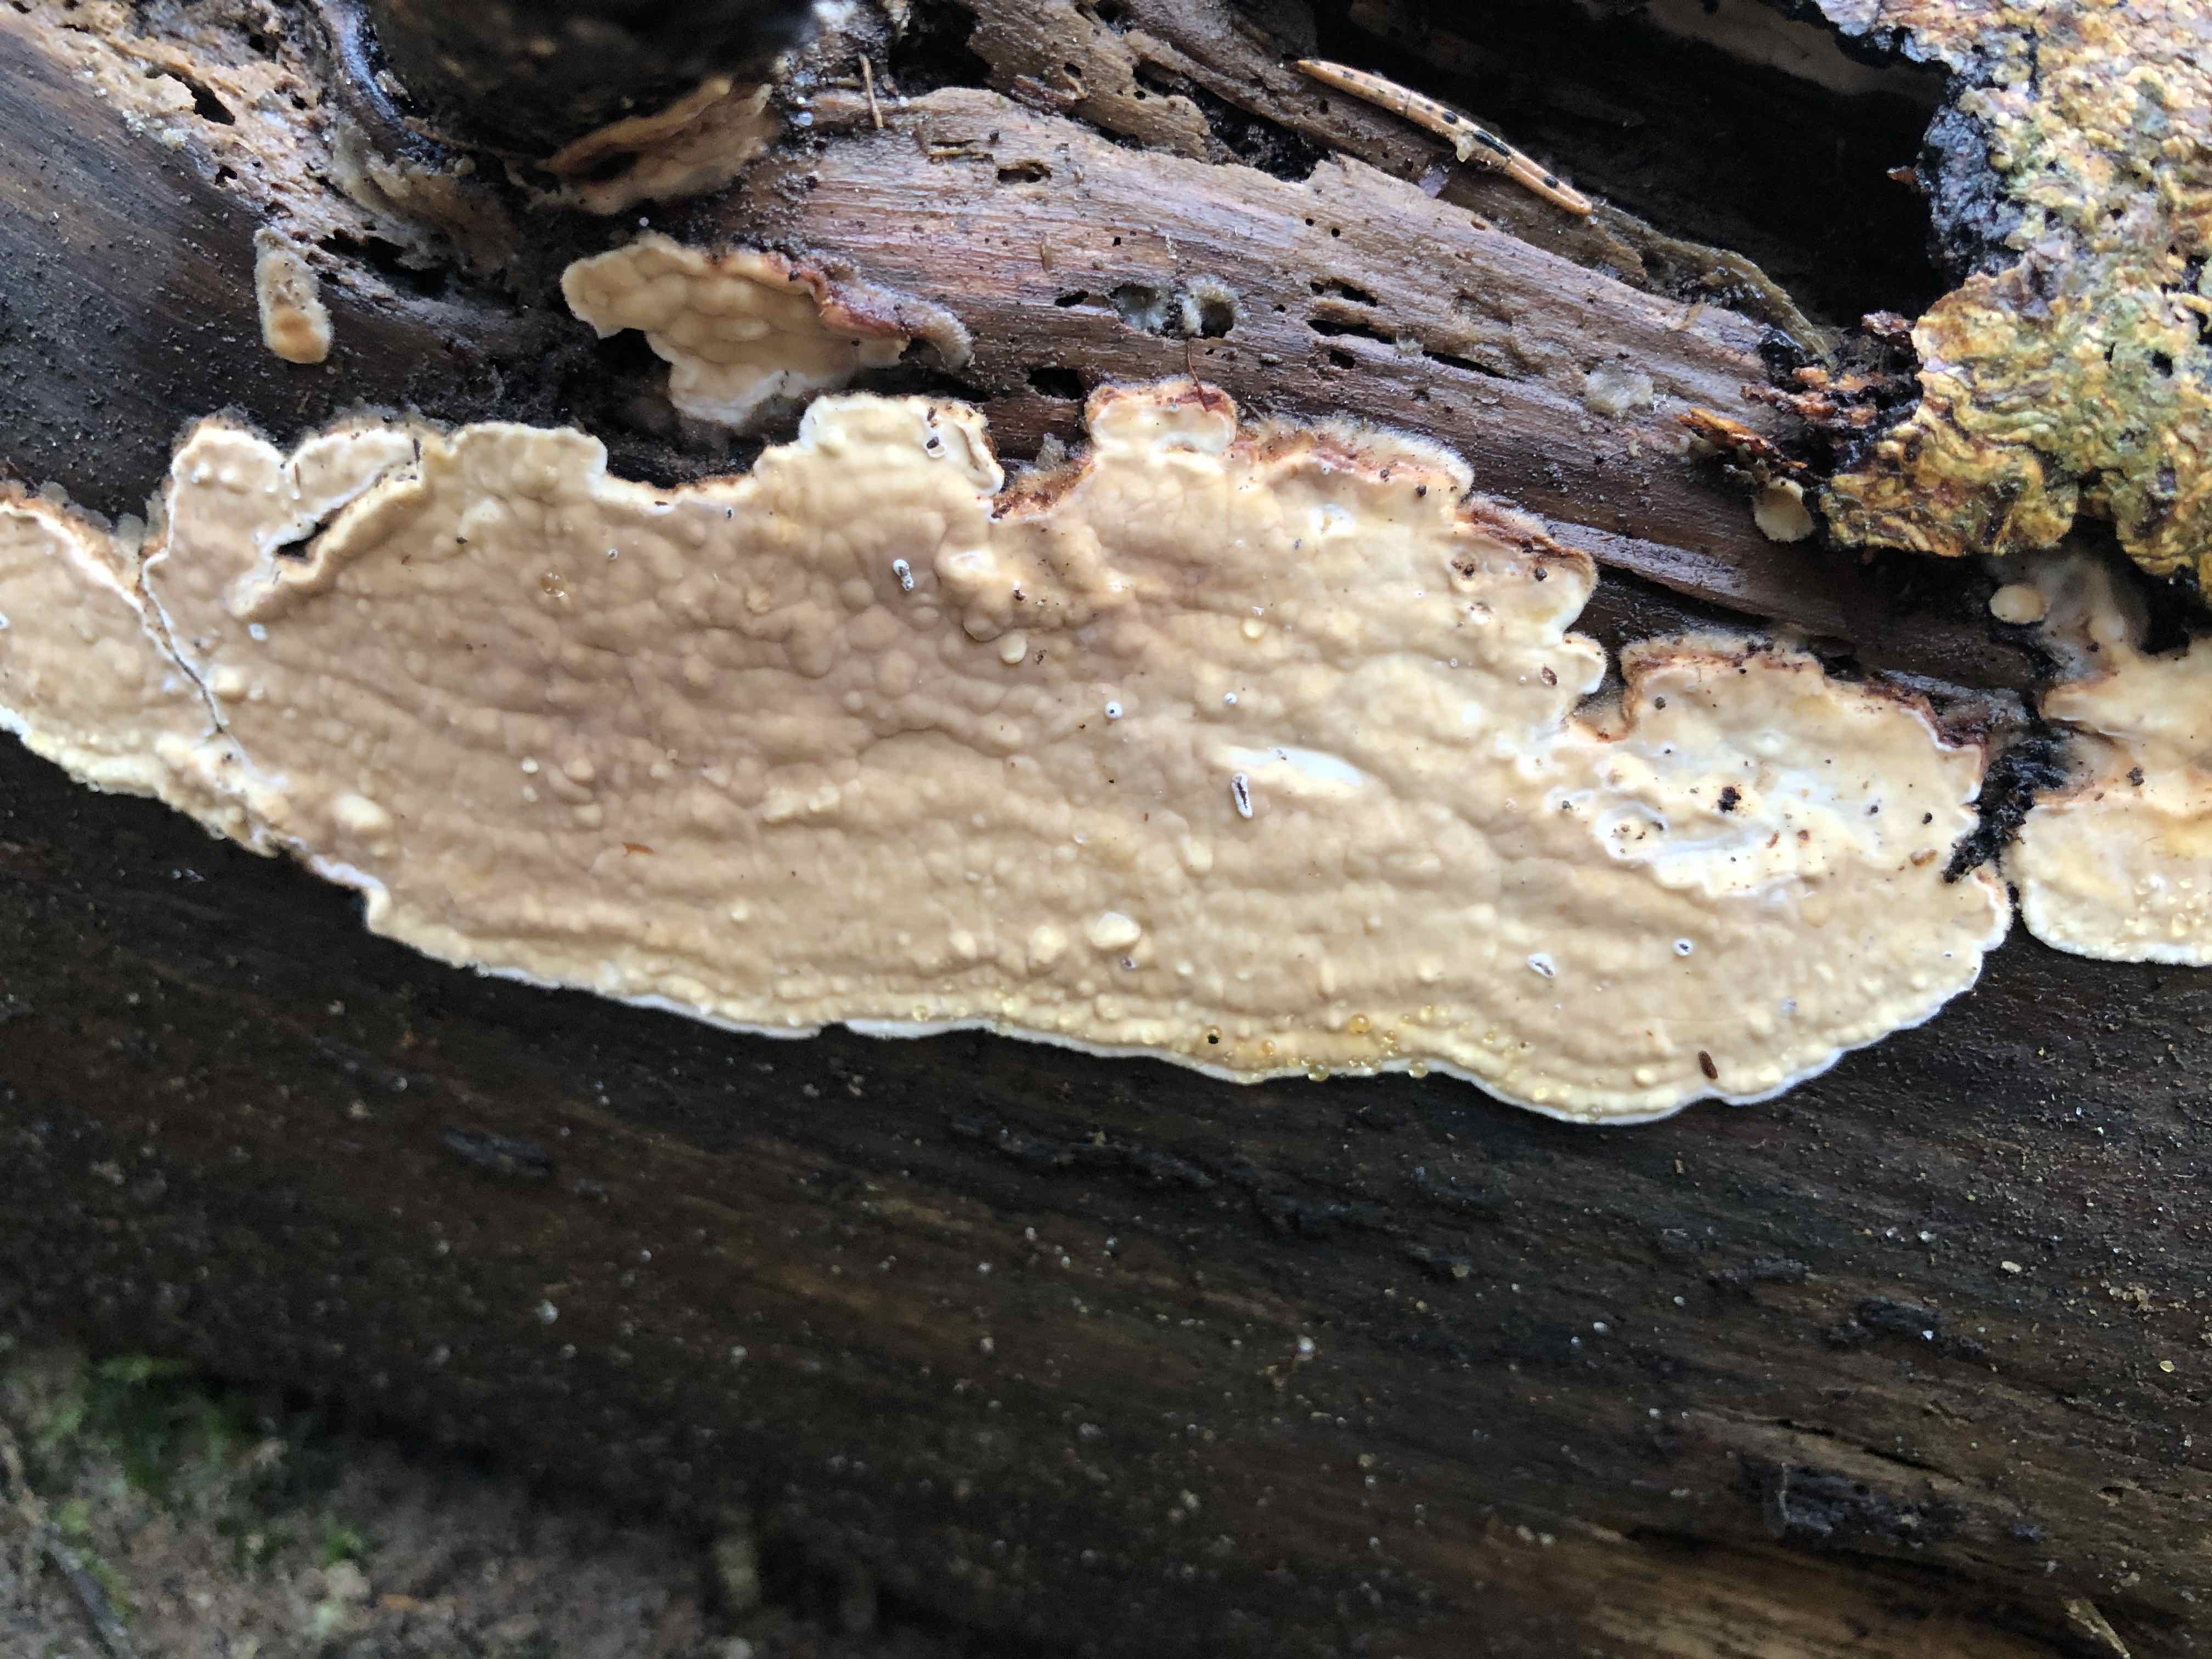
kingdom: Fungi
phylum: Basidiomycota
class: Agaricomycetes
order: Polyporales
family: Dacryobolaceae
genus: Dacryobolus
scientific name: Dacryobolus karstenii
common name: glat vulkanskorpe
